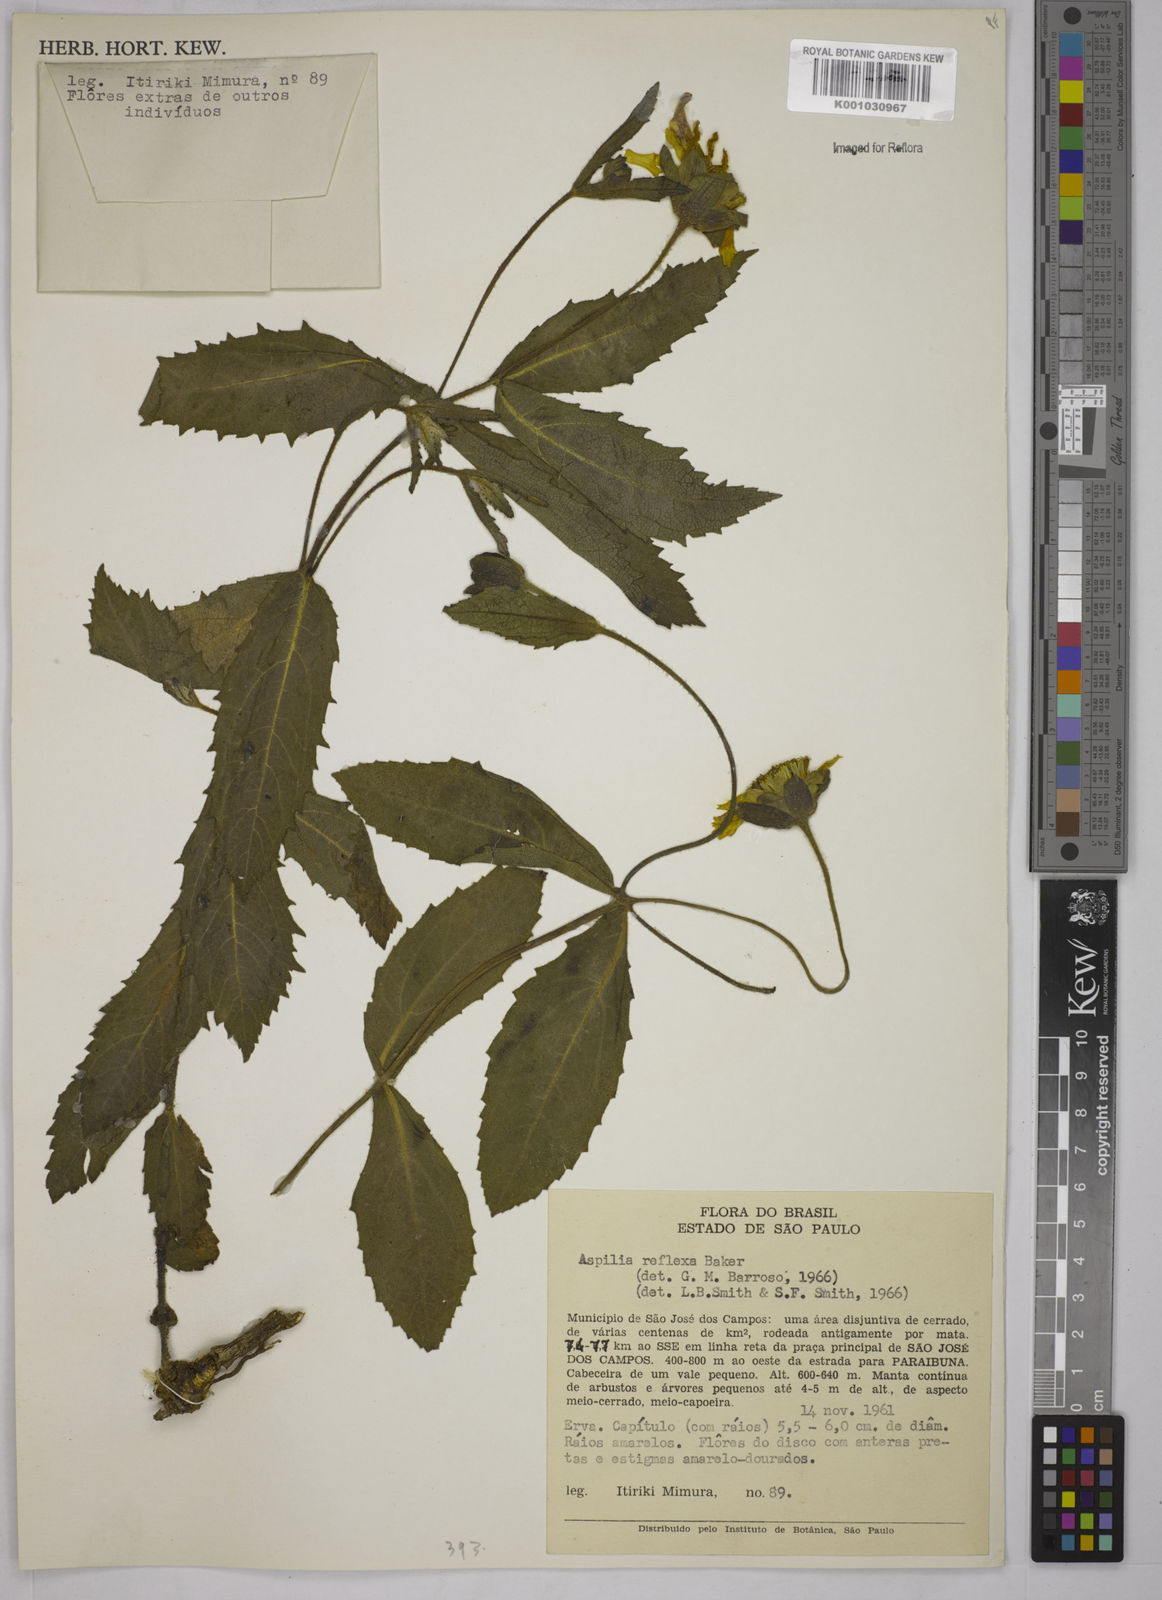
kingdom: Plantae
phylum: Tracheophyta
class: Magnoliopsida
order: Asterales
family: Asteraceae
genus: Wedelia
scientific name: Wedelia reflexa
